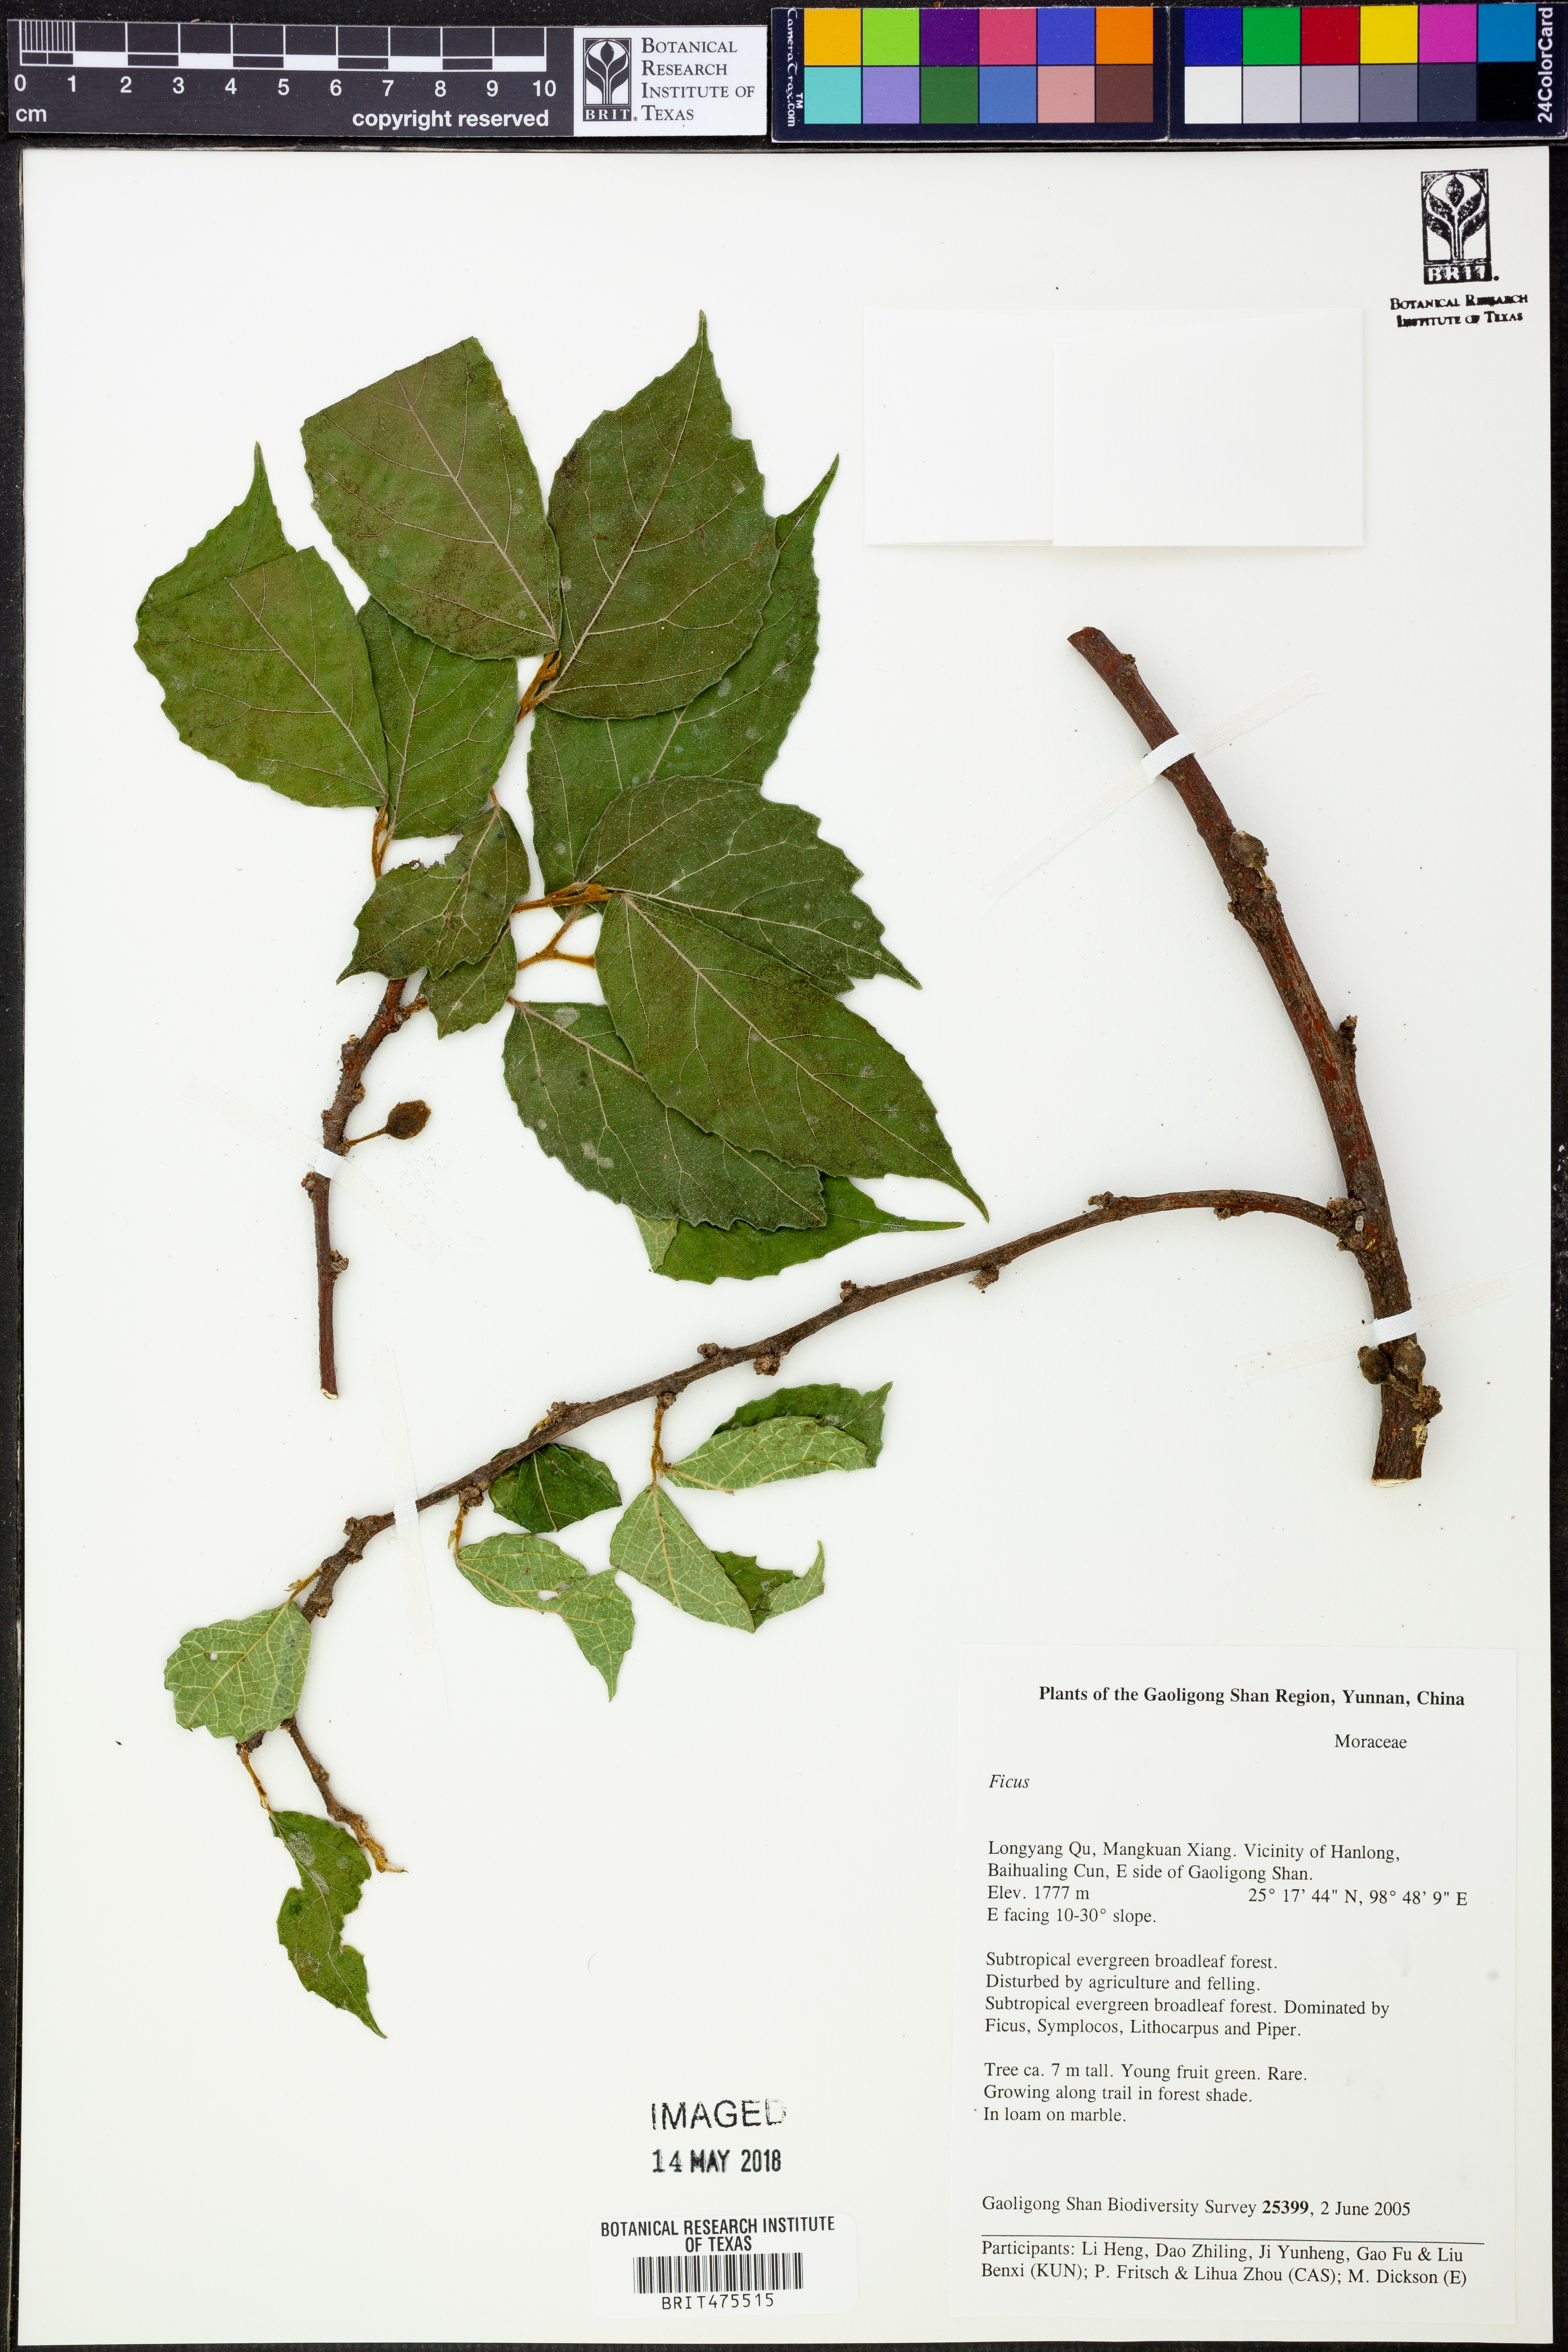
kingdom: Plantae
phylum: Tracheophyta
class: Magnoliopsida
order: Rosales
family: Moraceae
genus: Ficus
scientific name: Ficus
